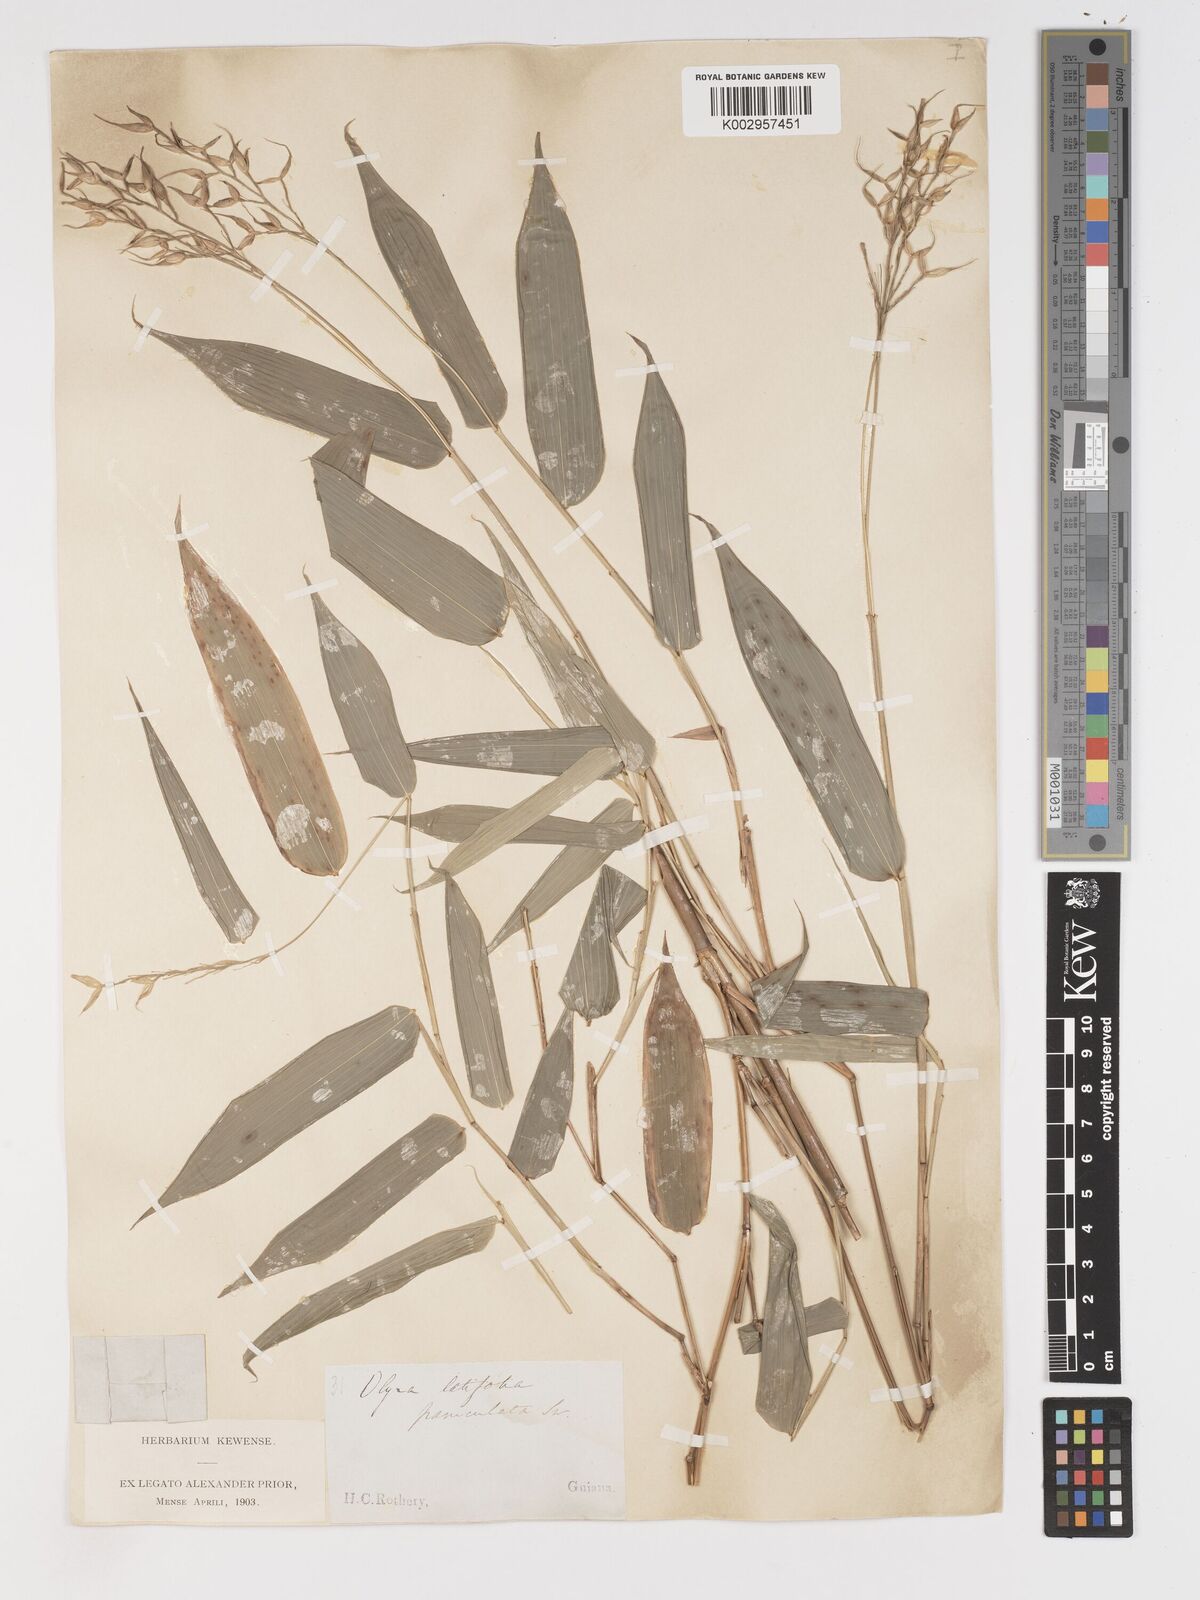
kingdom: Plantae
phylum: Tracheophyta
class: Liliopsida
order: Poales
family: Poaceae
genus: Olyra
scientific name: Olyra latifolia
